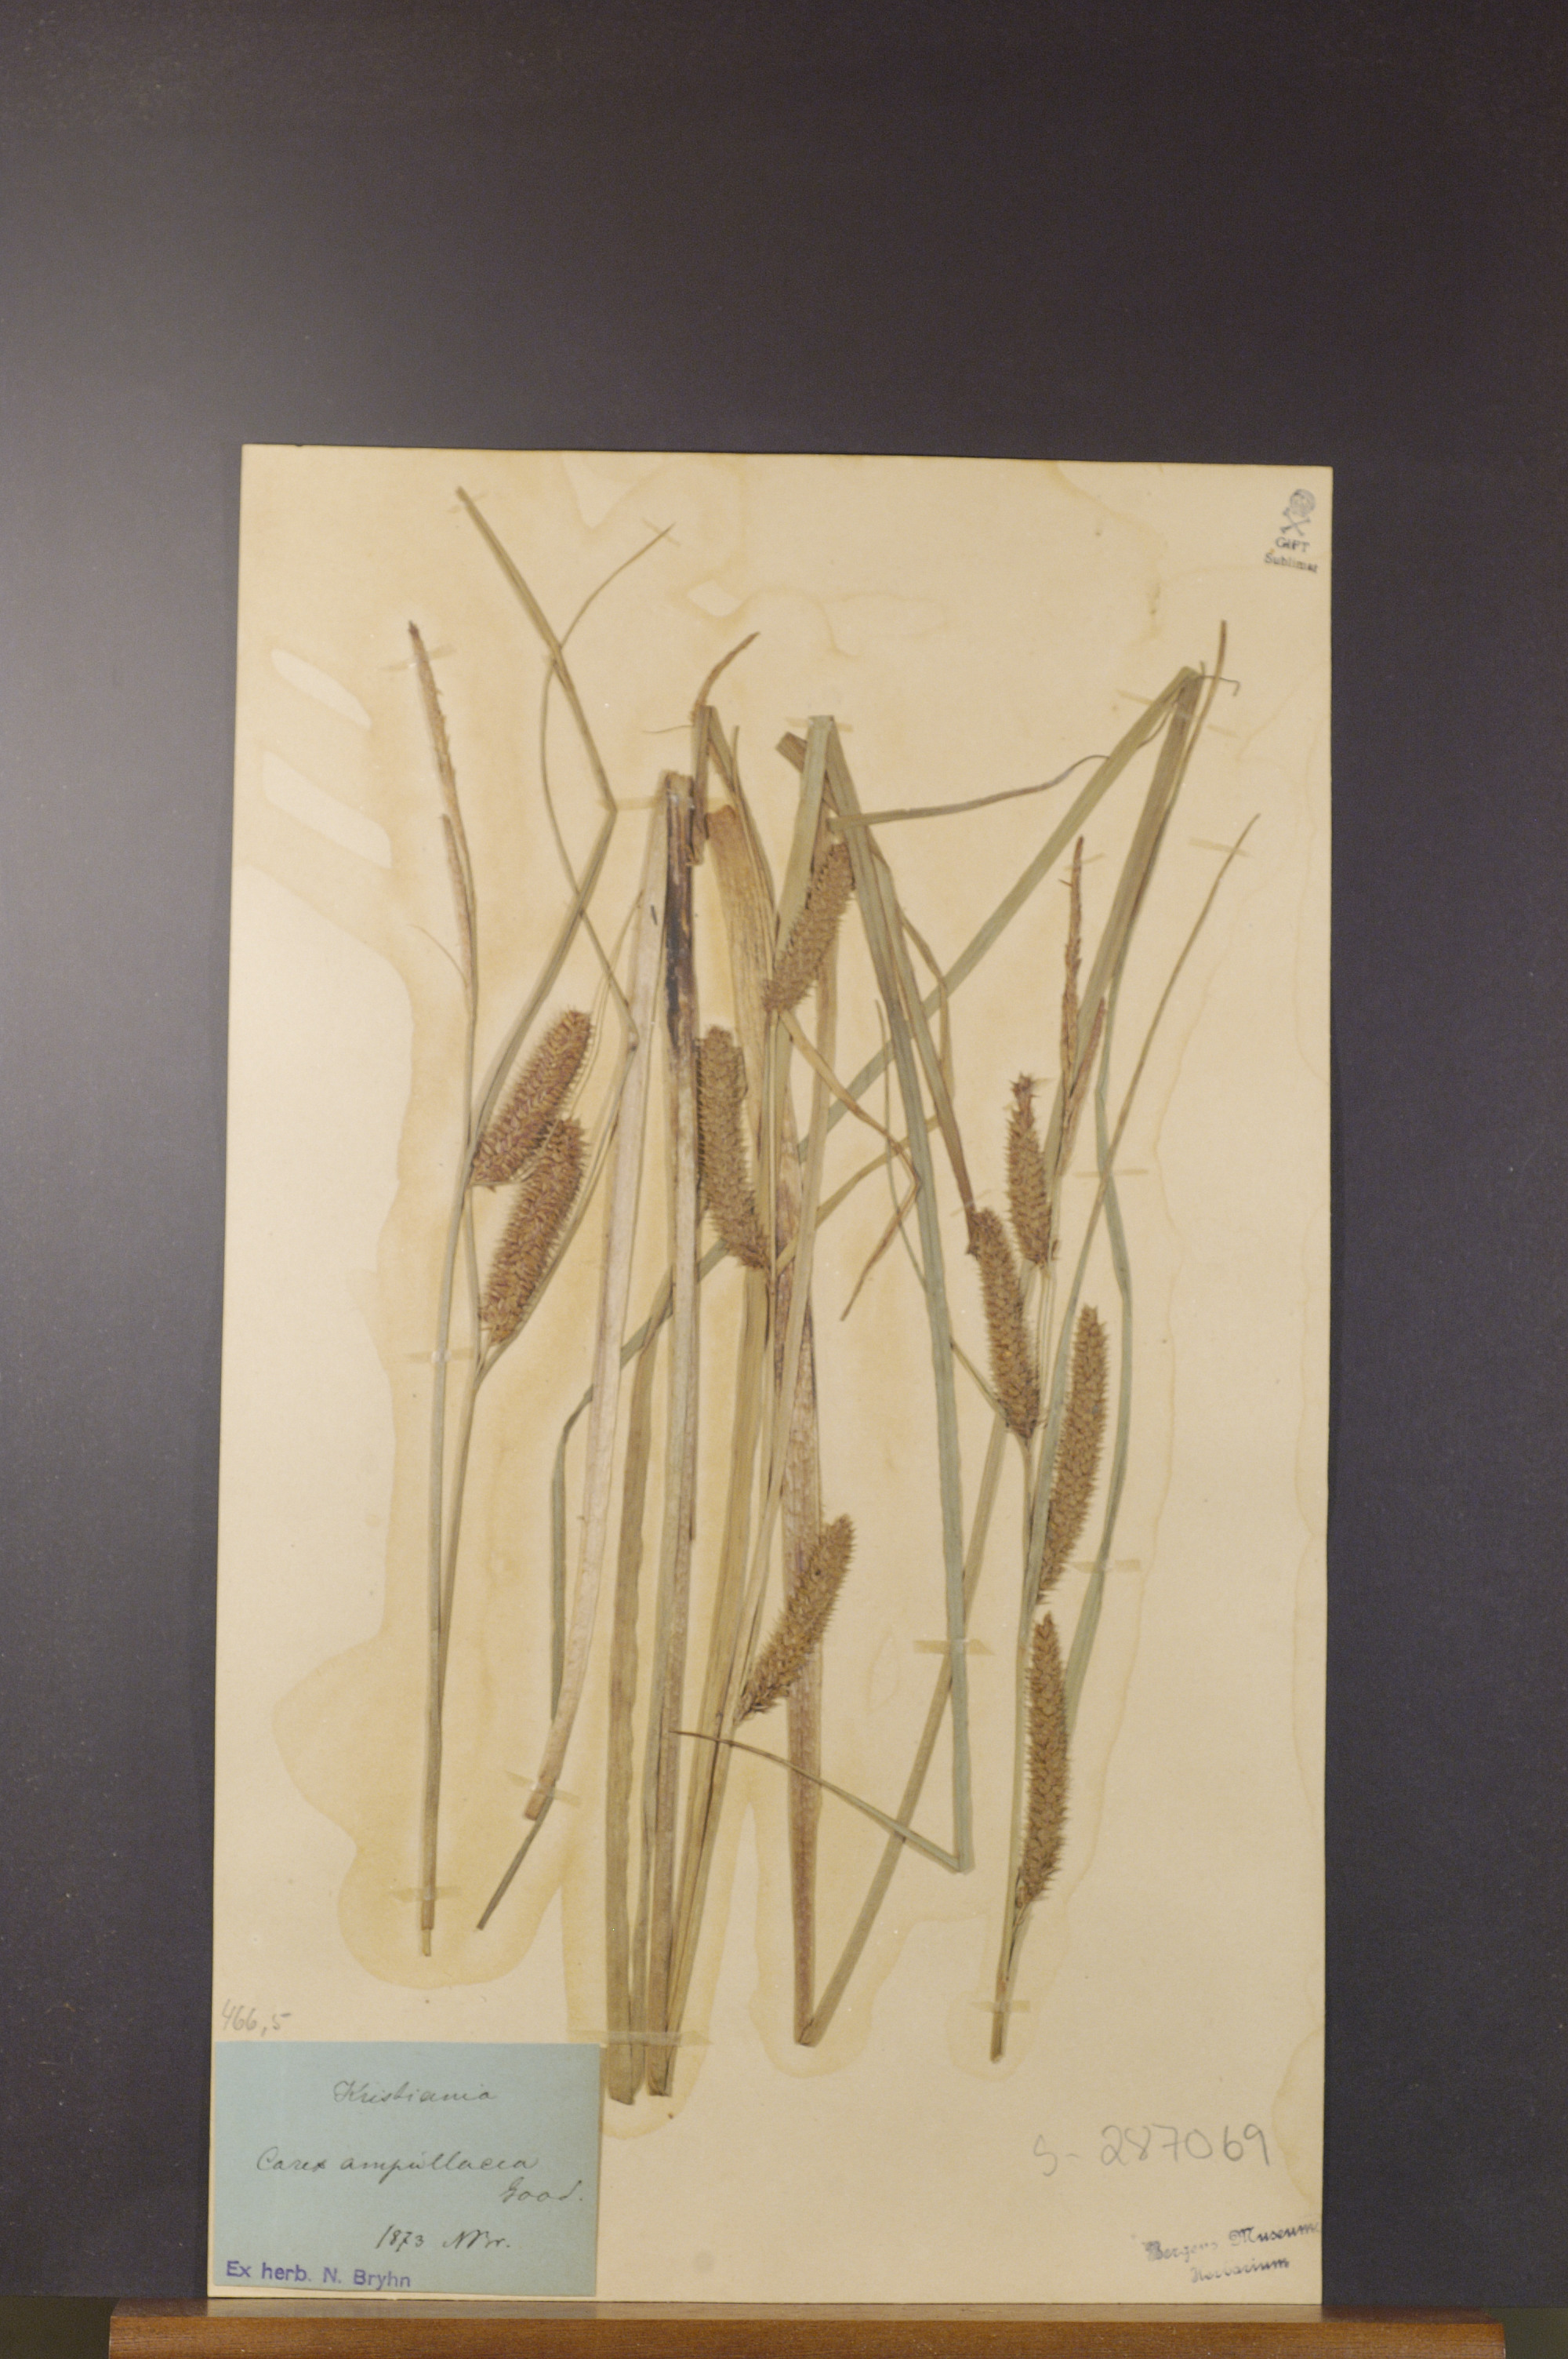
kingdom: Plantae
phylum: Tracheophyta
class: Liliopsida
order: Poales
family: Cyperaceae
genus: Carex
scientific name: Carex rostrata
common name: Bottle sedge
